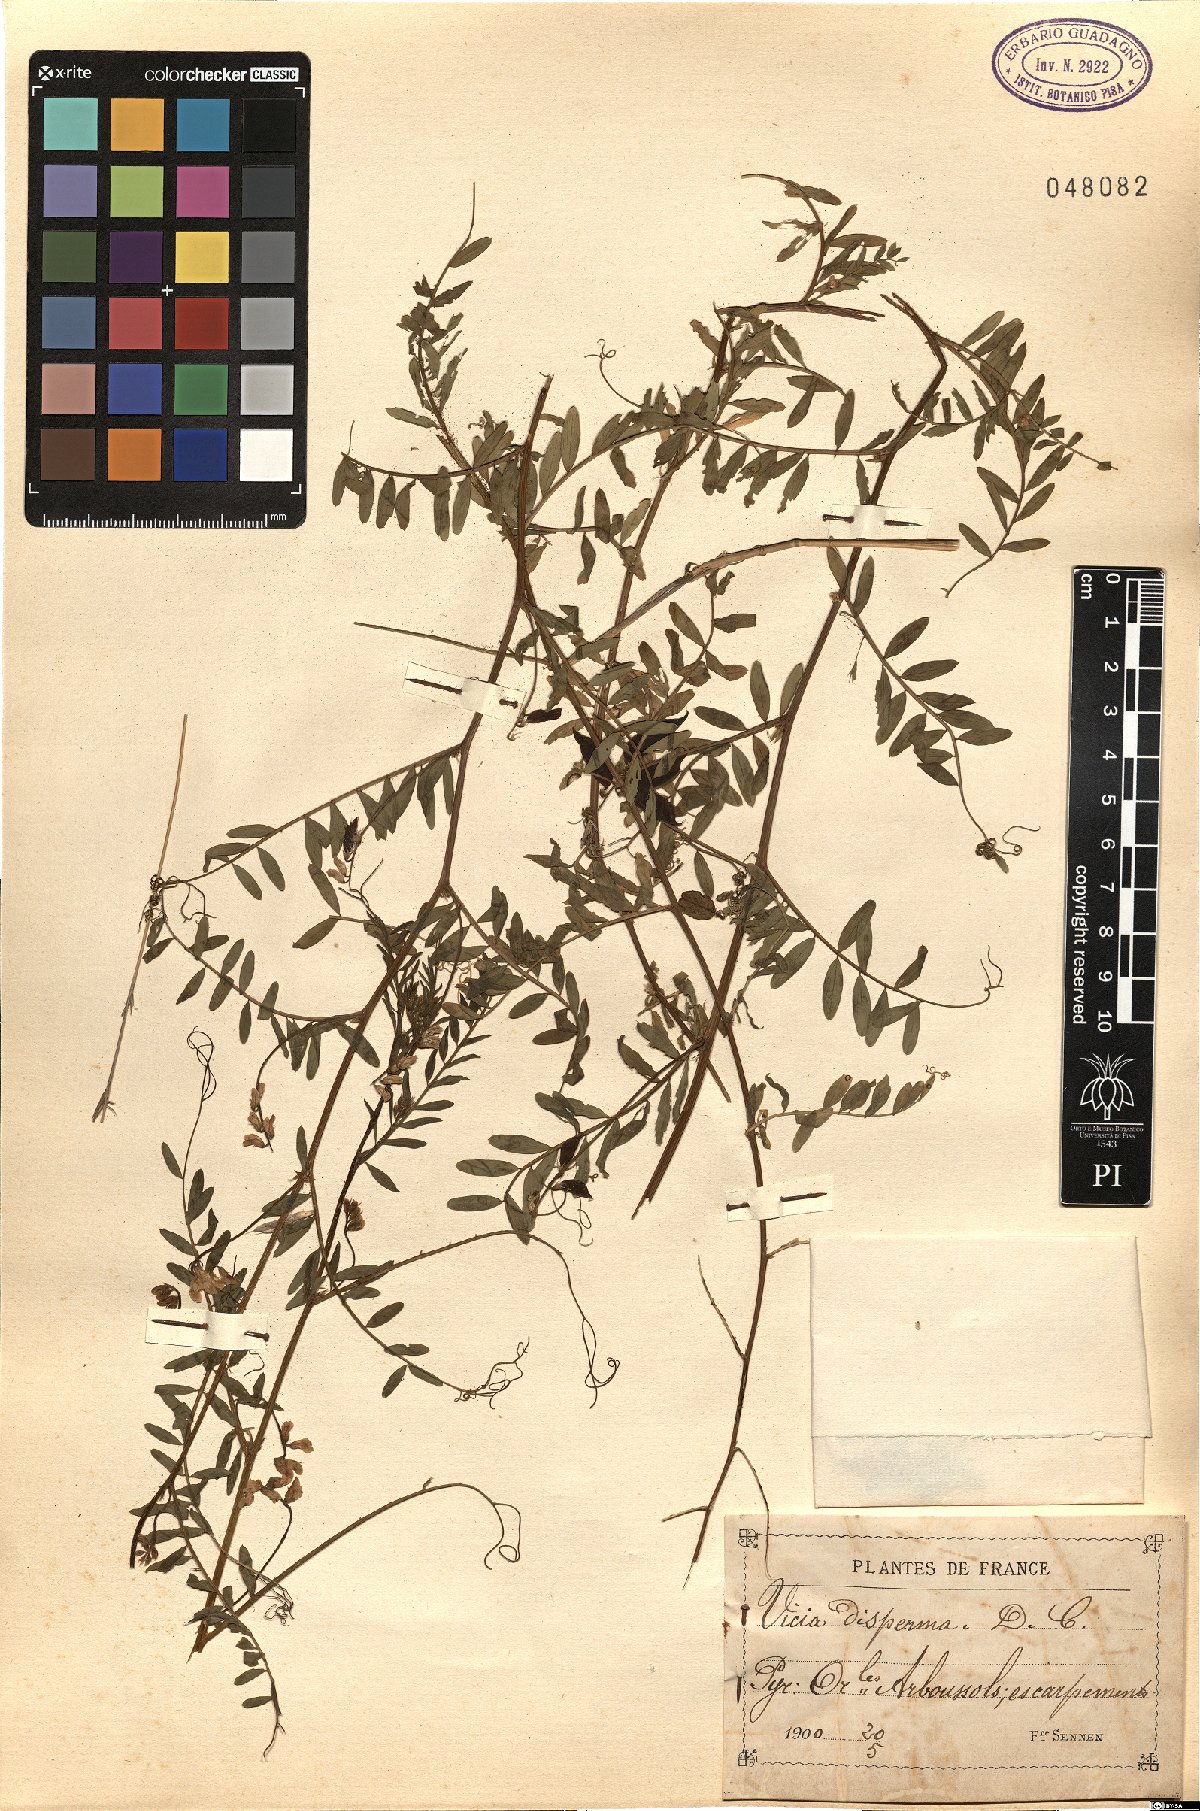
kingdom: Plantae
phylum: Tracheophyta
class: Magnoliopsida
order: Fabales
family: Fabaceae
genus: Vicia
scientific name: Vicia disperma
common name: European vetch
